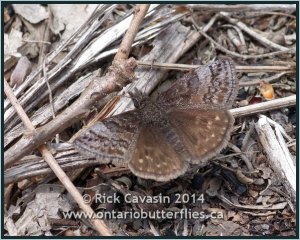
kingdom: Animalia
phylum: Arthropoda
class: Insecta
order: Lepidoptera
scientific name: Lepidoptera
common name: Butterflies
